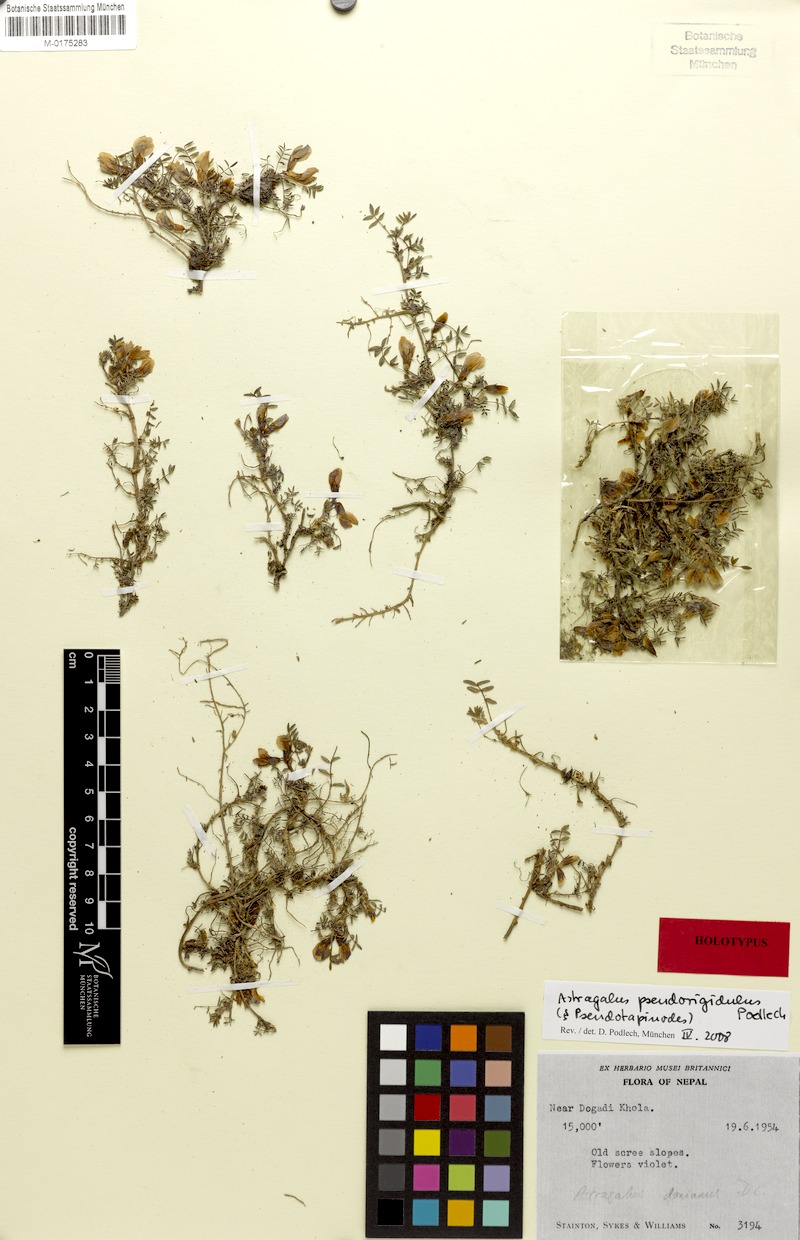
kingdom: Plantae
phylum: Tracheophyta
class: Magnoliopsida
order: Fabales
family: Fabaceae
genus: Astragalus
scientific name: Astragalus pseudorigidulus
